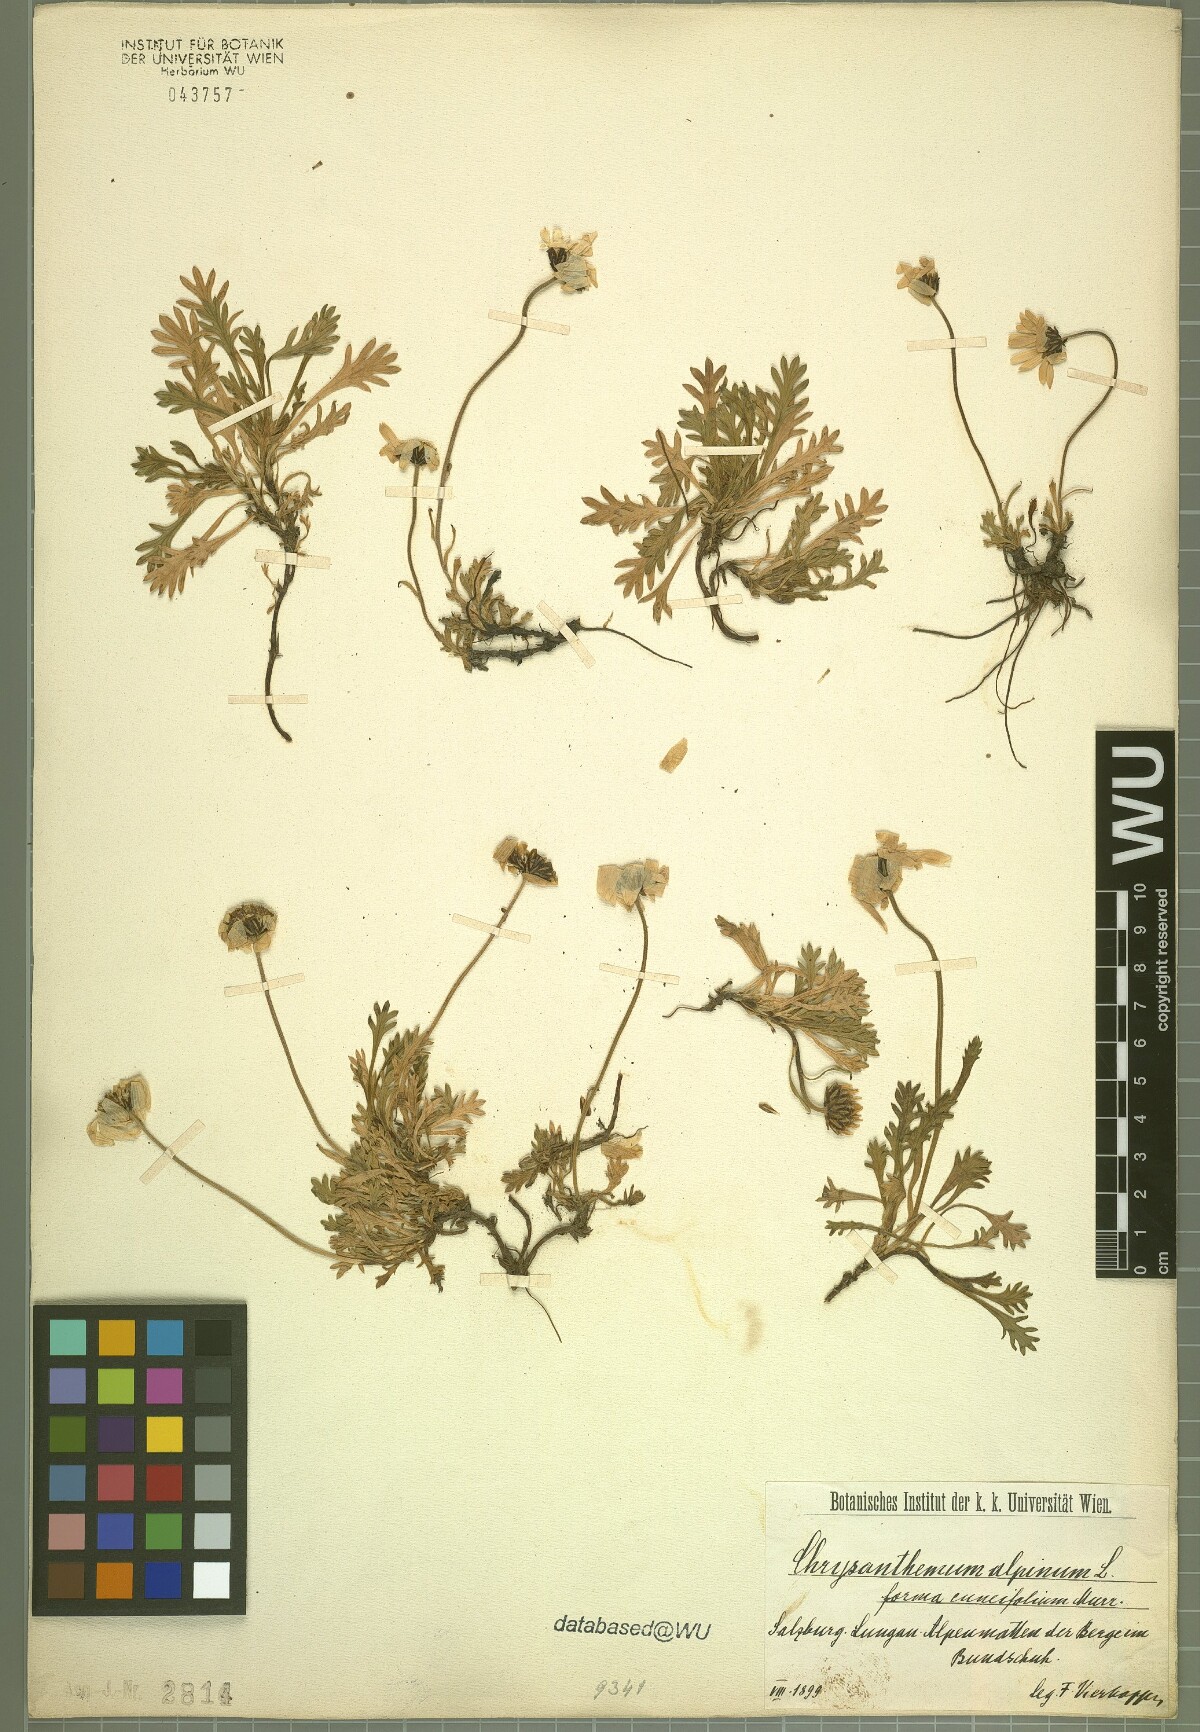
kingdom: Plantae
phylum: Tracheophyta
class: Magnoliopsida
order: Asterales
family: Asteraceae
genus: Leucanthemopsis
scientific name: Leucanthemopsis alpina
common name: Alpine moon daisy
